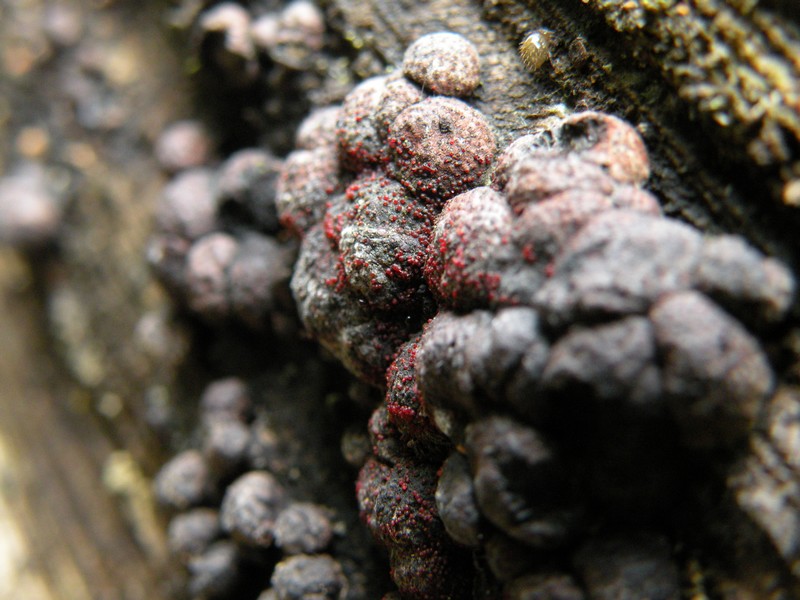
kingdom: Fungi
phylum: Ascomycota
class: Sordariomycetes
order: Hypocreales
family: Nectriaceae
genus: Cosmospora
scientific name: Cosmospora arxii
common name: kuljordbær-cinnobersvamp
